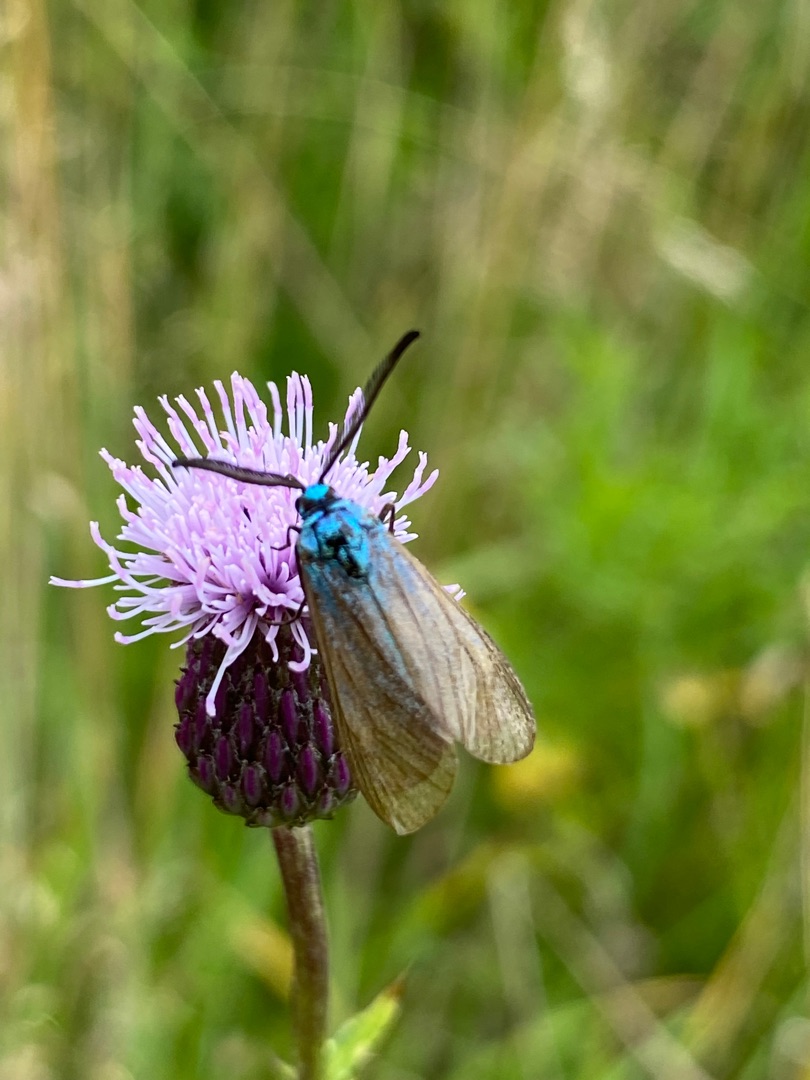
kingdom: Animalia
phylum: Arthropoda
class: Insecta
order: Lepidoptera
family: Zygaenidae
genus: Adscita
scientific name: Adscita statices
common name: Metalvinge
